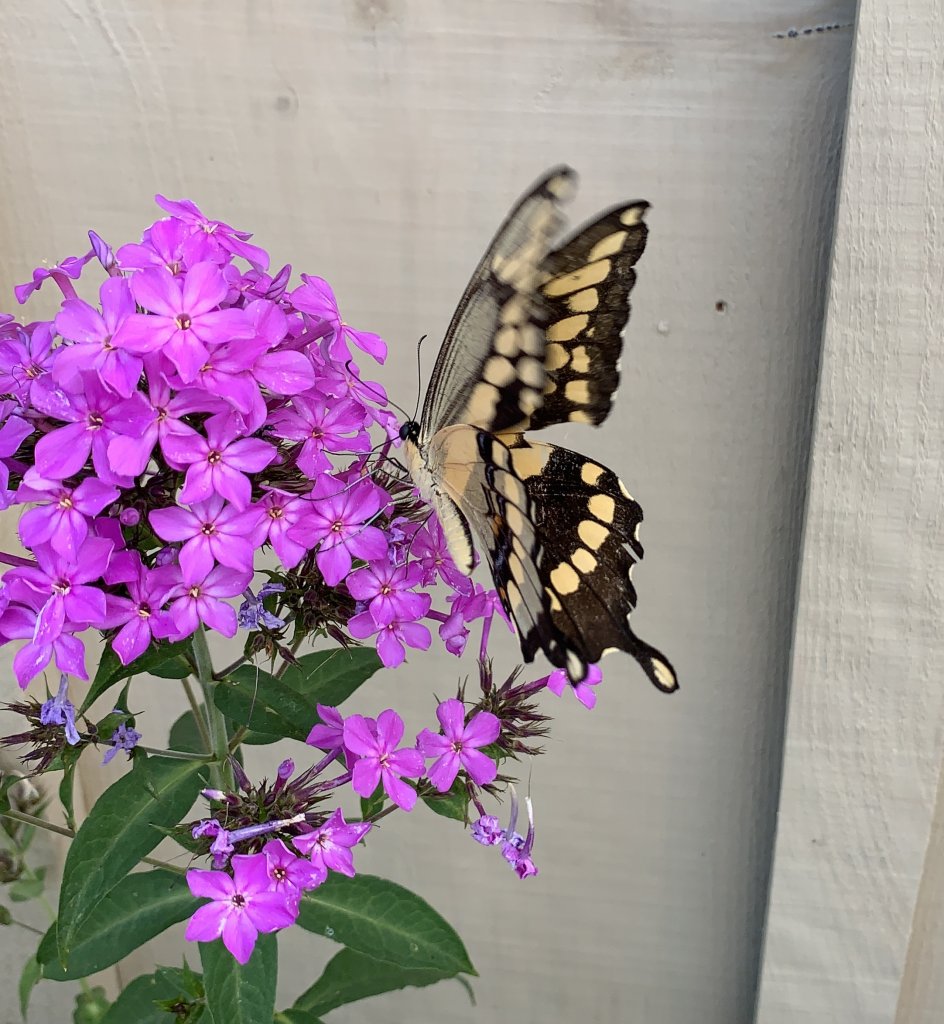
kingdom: Animalia
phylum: Arthropoda
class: Insecta
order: Lepidoptera
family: Papilionidae
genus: Papilio
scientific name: Papilio cresphontes
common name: Eastern Giant Swallowtail
